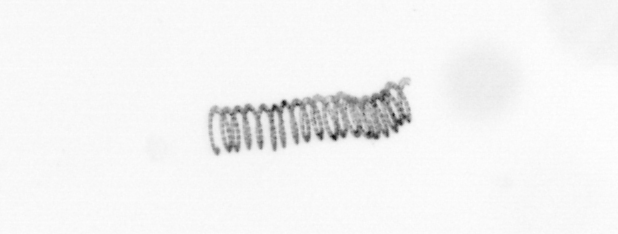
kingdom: Chromista
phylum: Ochrophyta
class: Bacillariophyceae
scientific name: Bacillariophyceae
